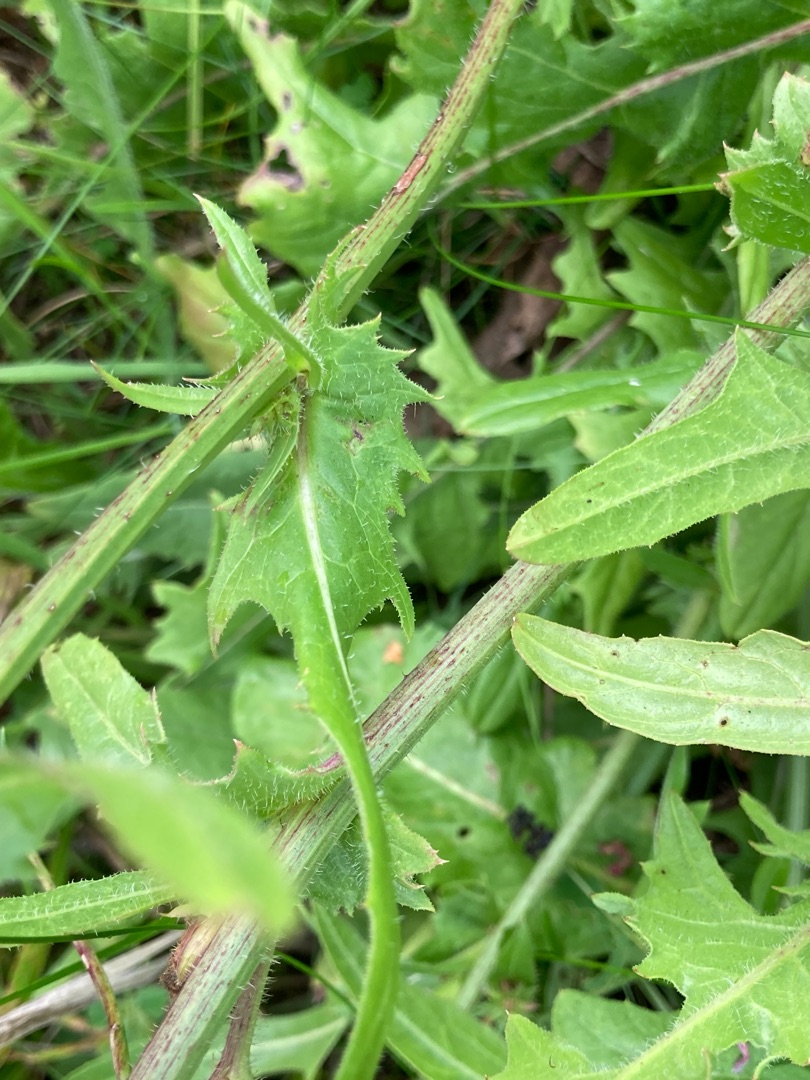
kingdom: Plantae
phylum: Tracheophyta
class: Magnoliopsida
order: Asterales
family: Asteraceae
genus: Cichorium
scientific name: Cichorium intybus
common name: Cikorie
